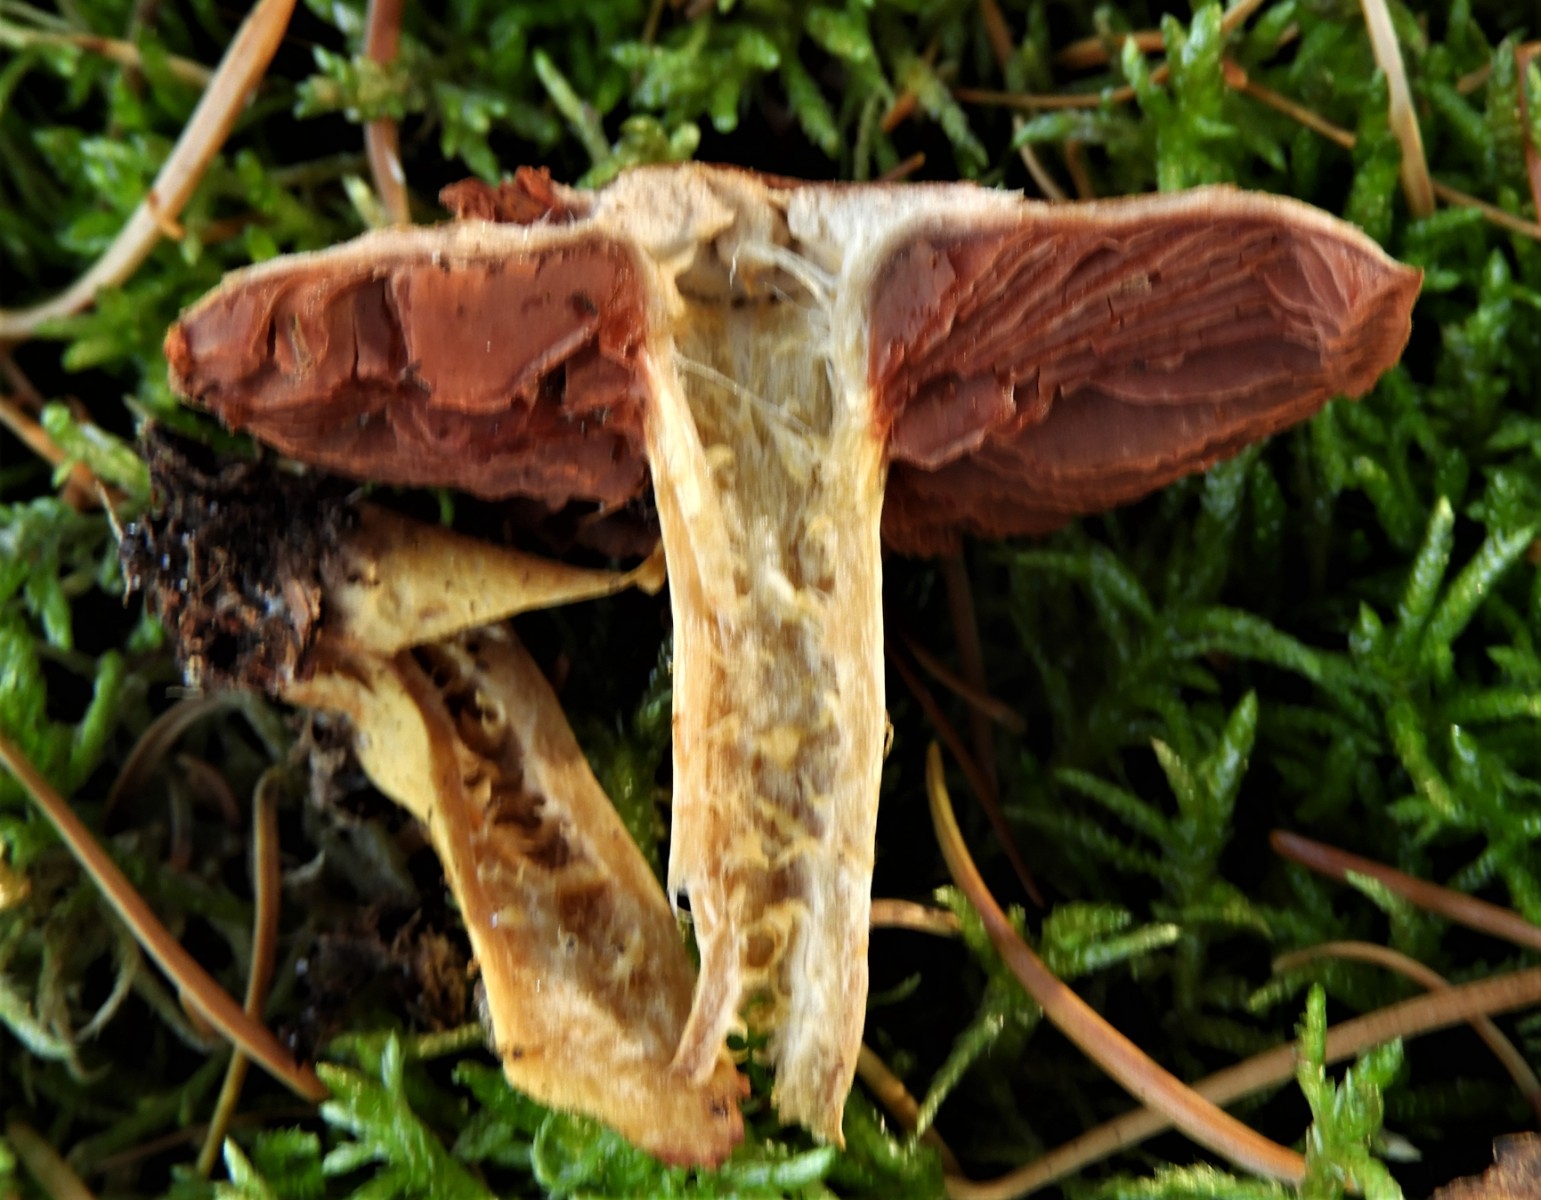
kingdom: Fungi
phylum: Basidiomycota
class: Agaricomycetes
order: Agaricales
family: Cortinariaceae
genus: Cortinarius
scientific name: Cortinarius
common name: cinnoberbladet slørhat
